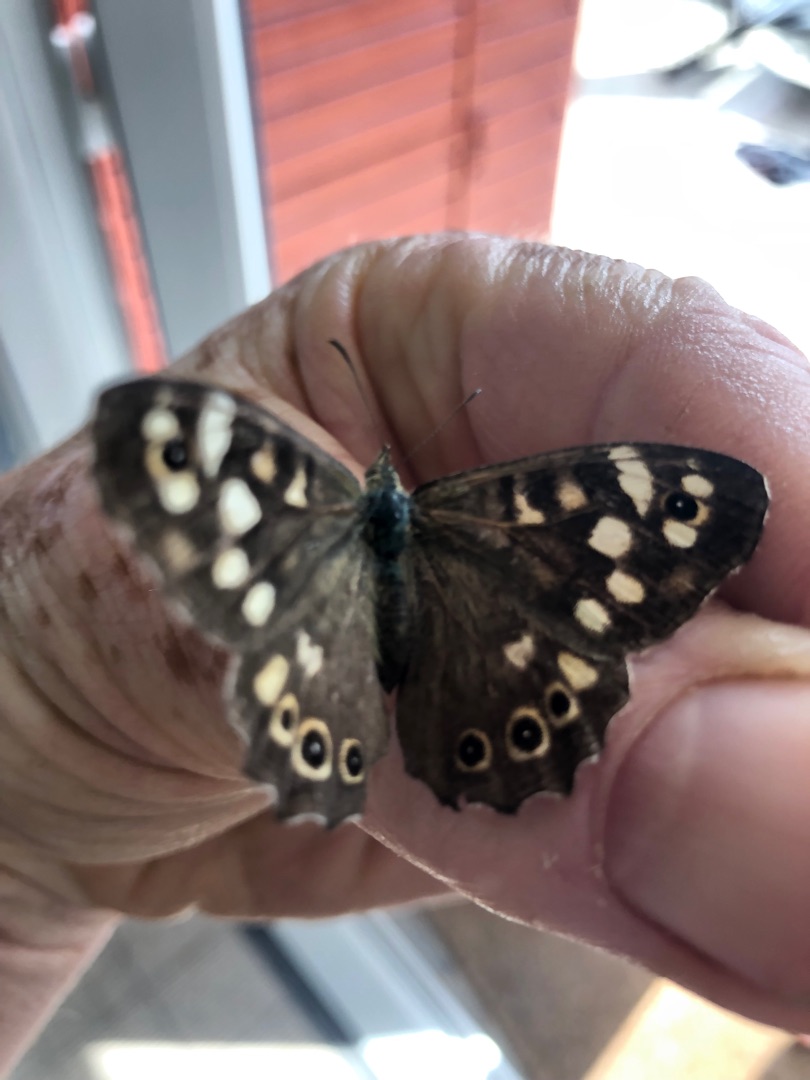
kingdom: Animalia
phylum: Arthropoda
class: Insecta
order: Lepidoptera
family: Nymphalidae
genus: Pararge
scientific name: Pararge aegeria
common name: Skovrandøje
